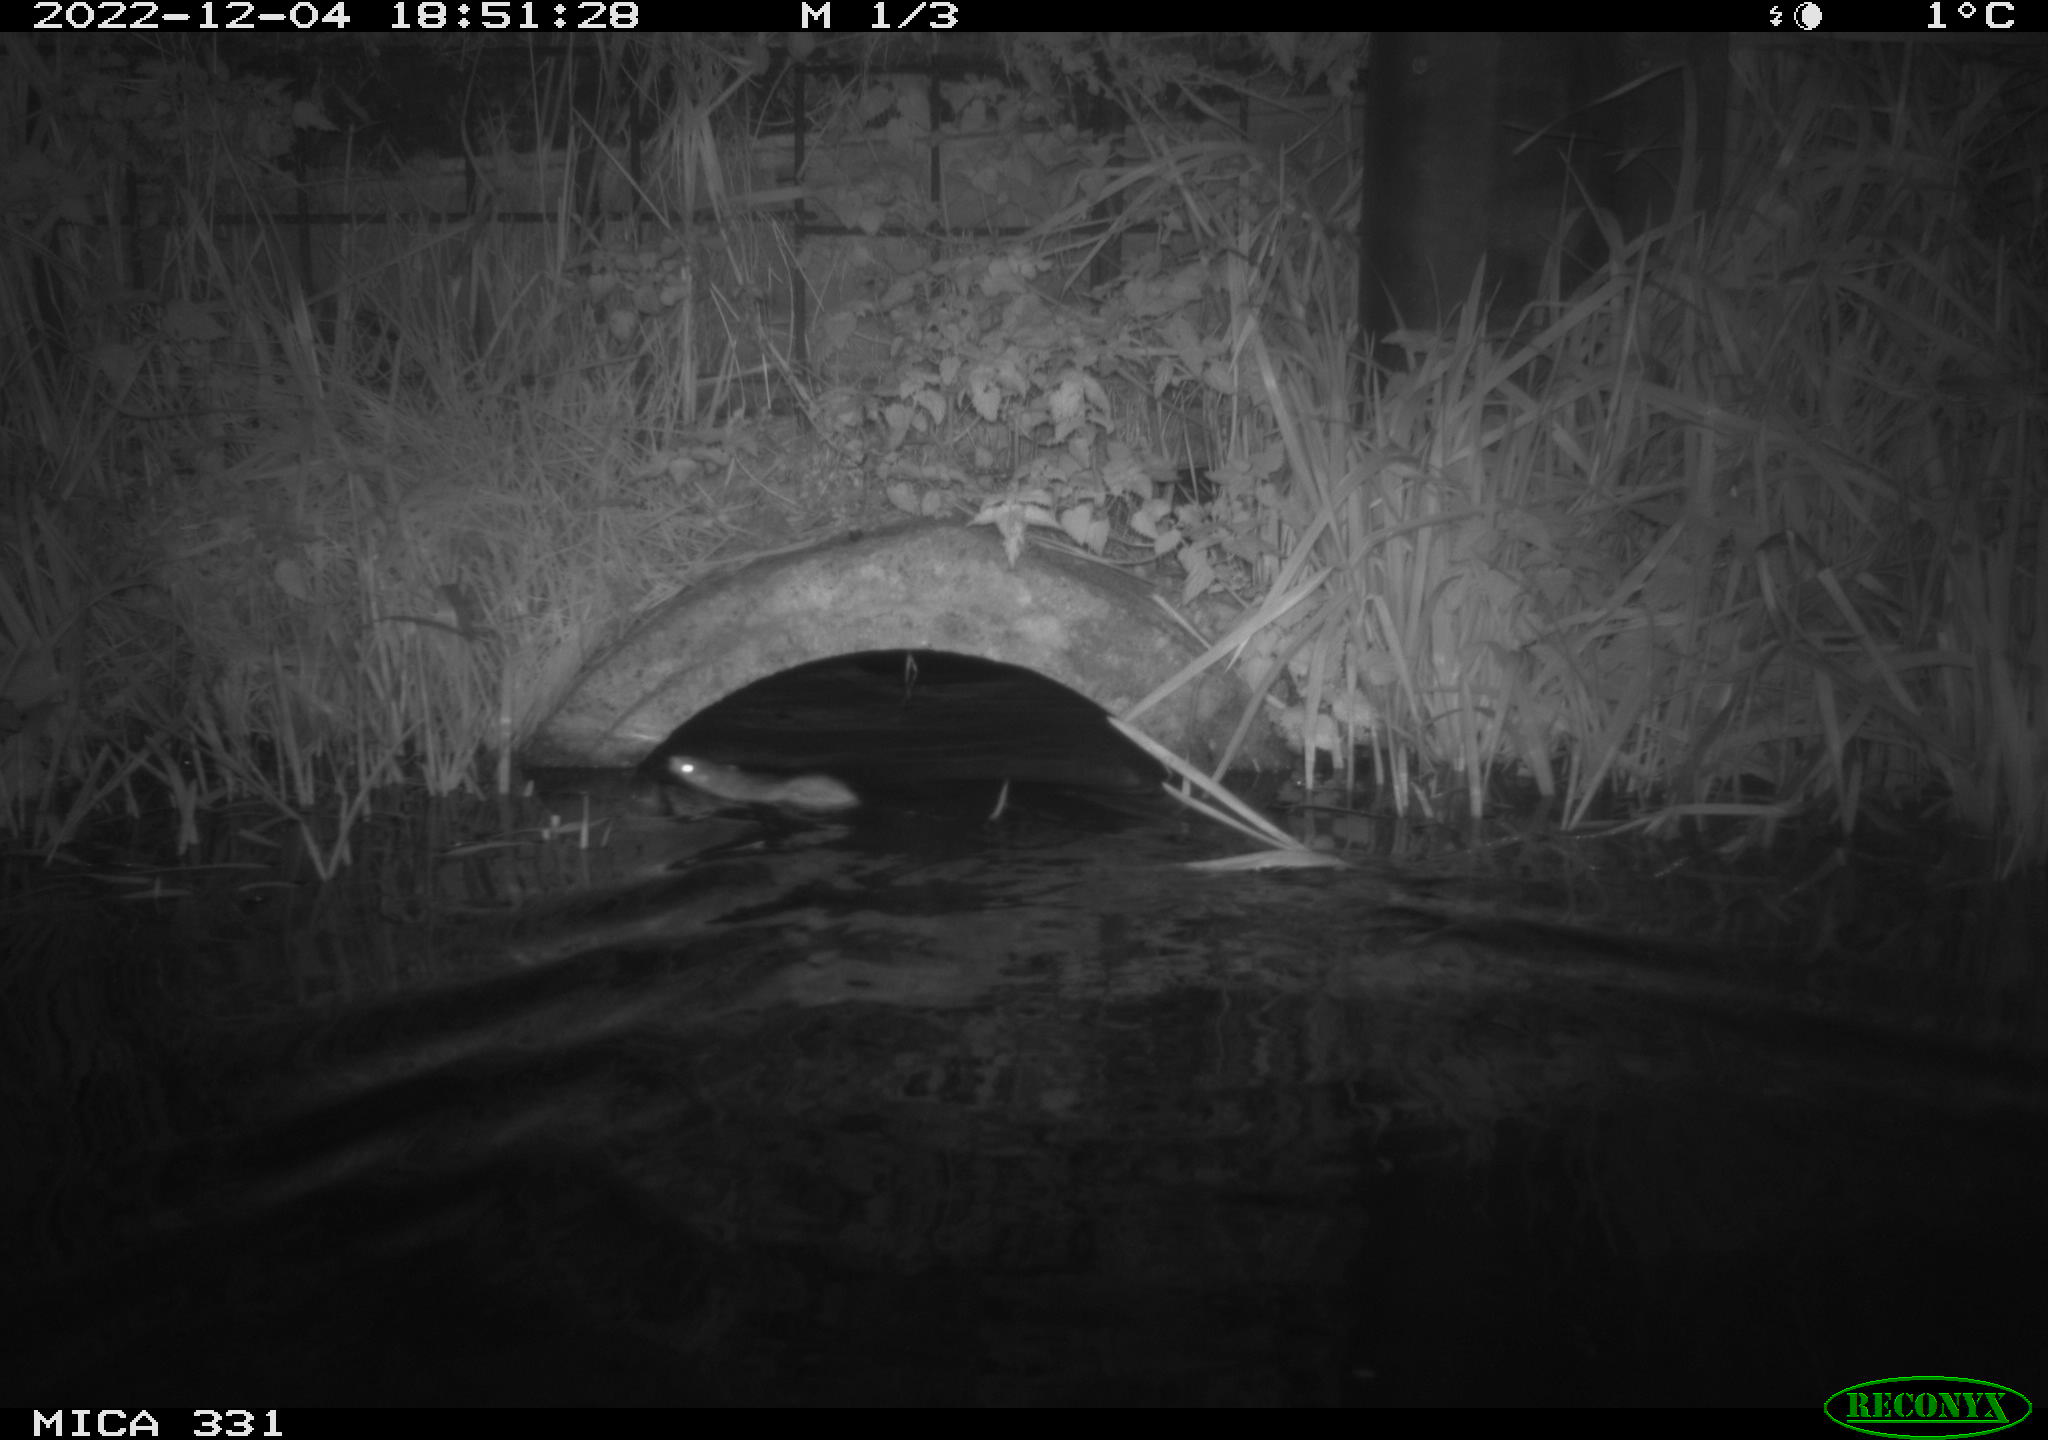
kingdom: Animalia
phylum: Chordata
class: Mammalia
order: Rodentia
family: Muridae
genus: Rattus
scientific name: Rattus norvegicus
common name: Brown rat
